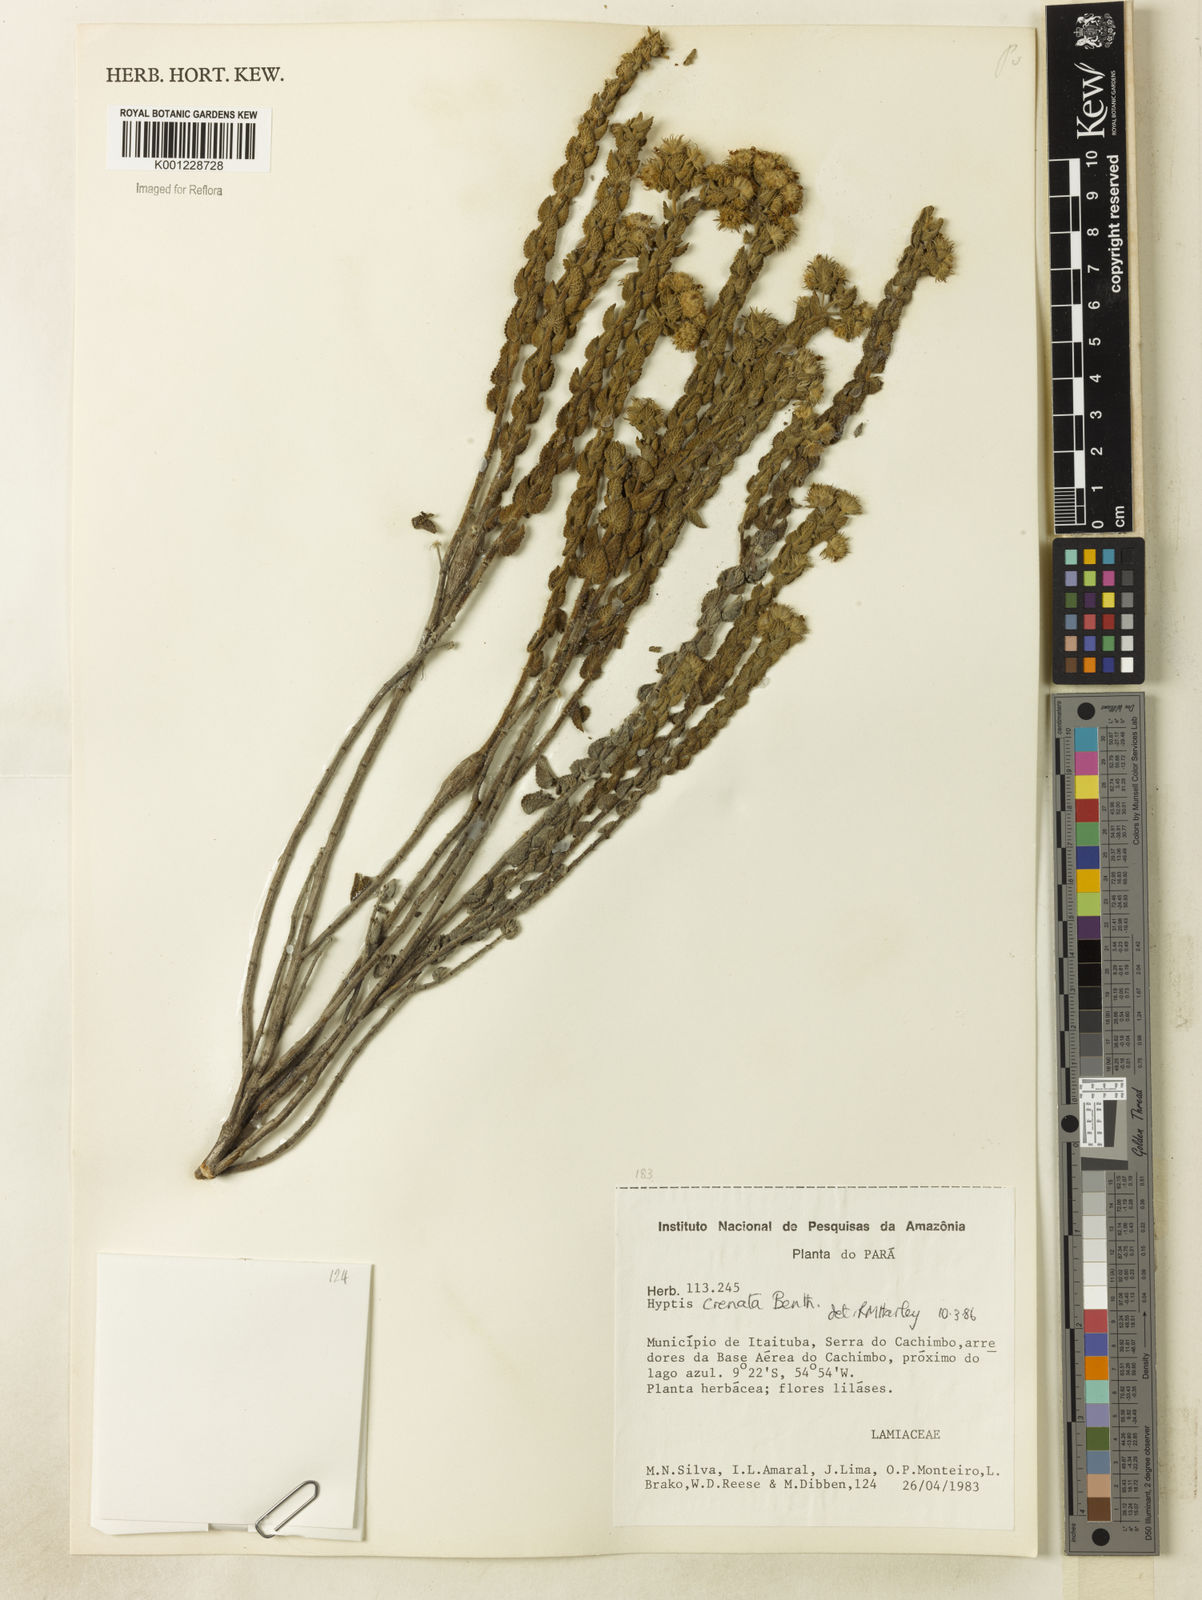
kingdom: Plantae
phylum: Tracheophyta
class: Magnoliopsida
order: Lamiales
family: Lamiaceae
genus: Hyptis
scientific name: Hyptis crenata
